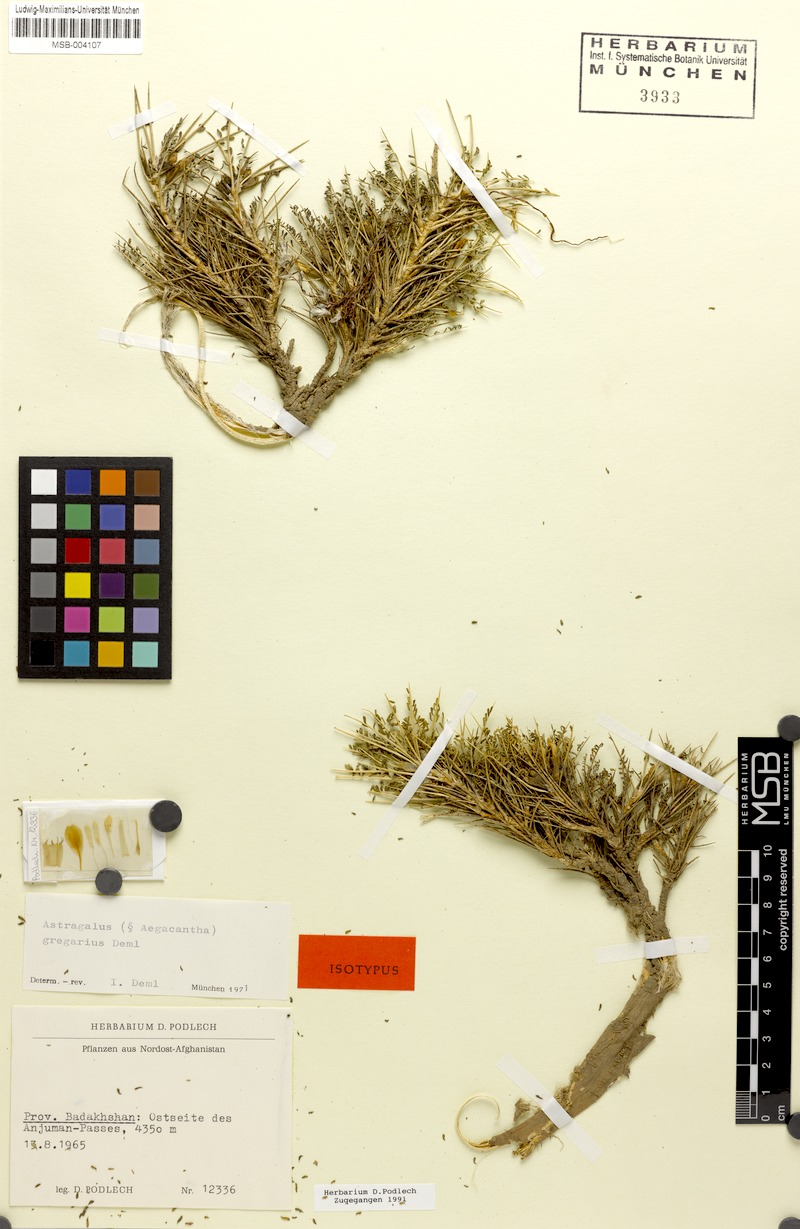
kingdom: Plantae
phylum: Tracheophyta
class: Magnoliopsida
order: Fabales
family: Fabaceae
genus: Astragalus
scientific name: Astragalus gregarius
